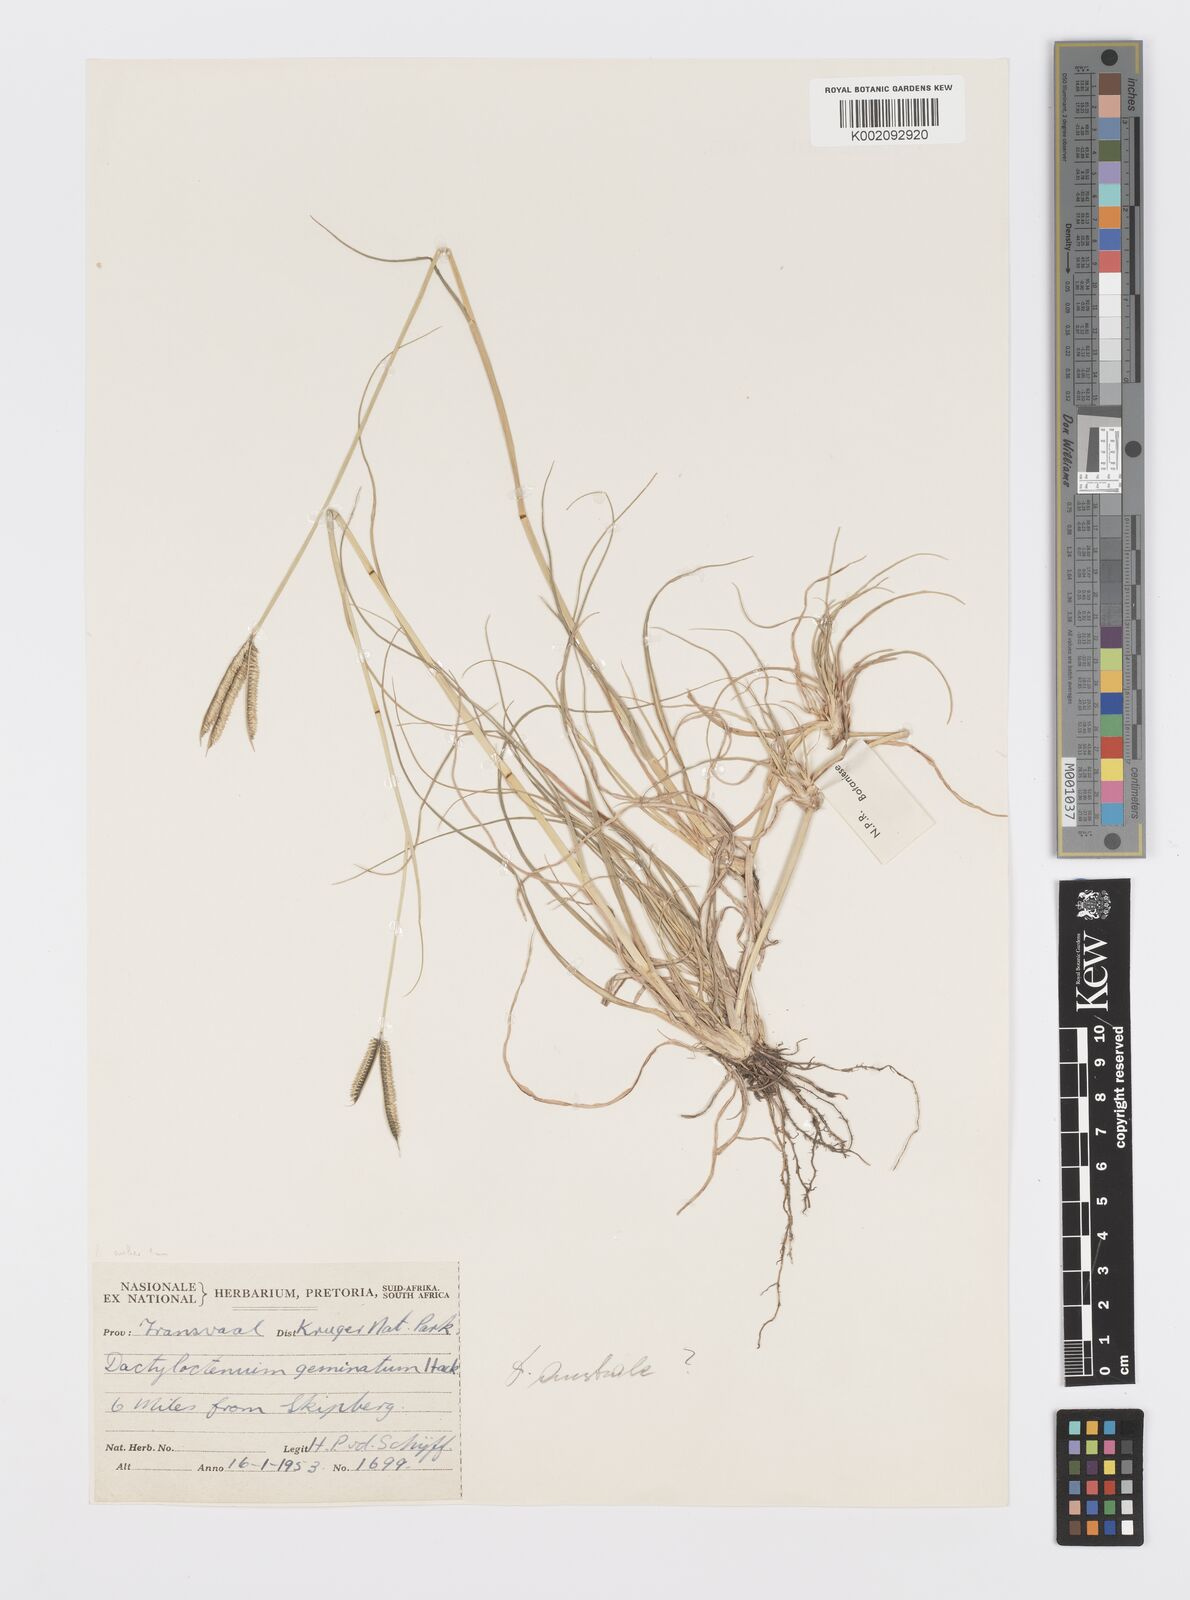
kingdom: Plantae
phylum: Tracheophyta
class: Liliopsida
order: Poales
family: Poaceae
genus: Dactyloctenium
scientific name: Dactyloctenium geminatum
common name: Crowsfoot grass
